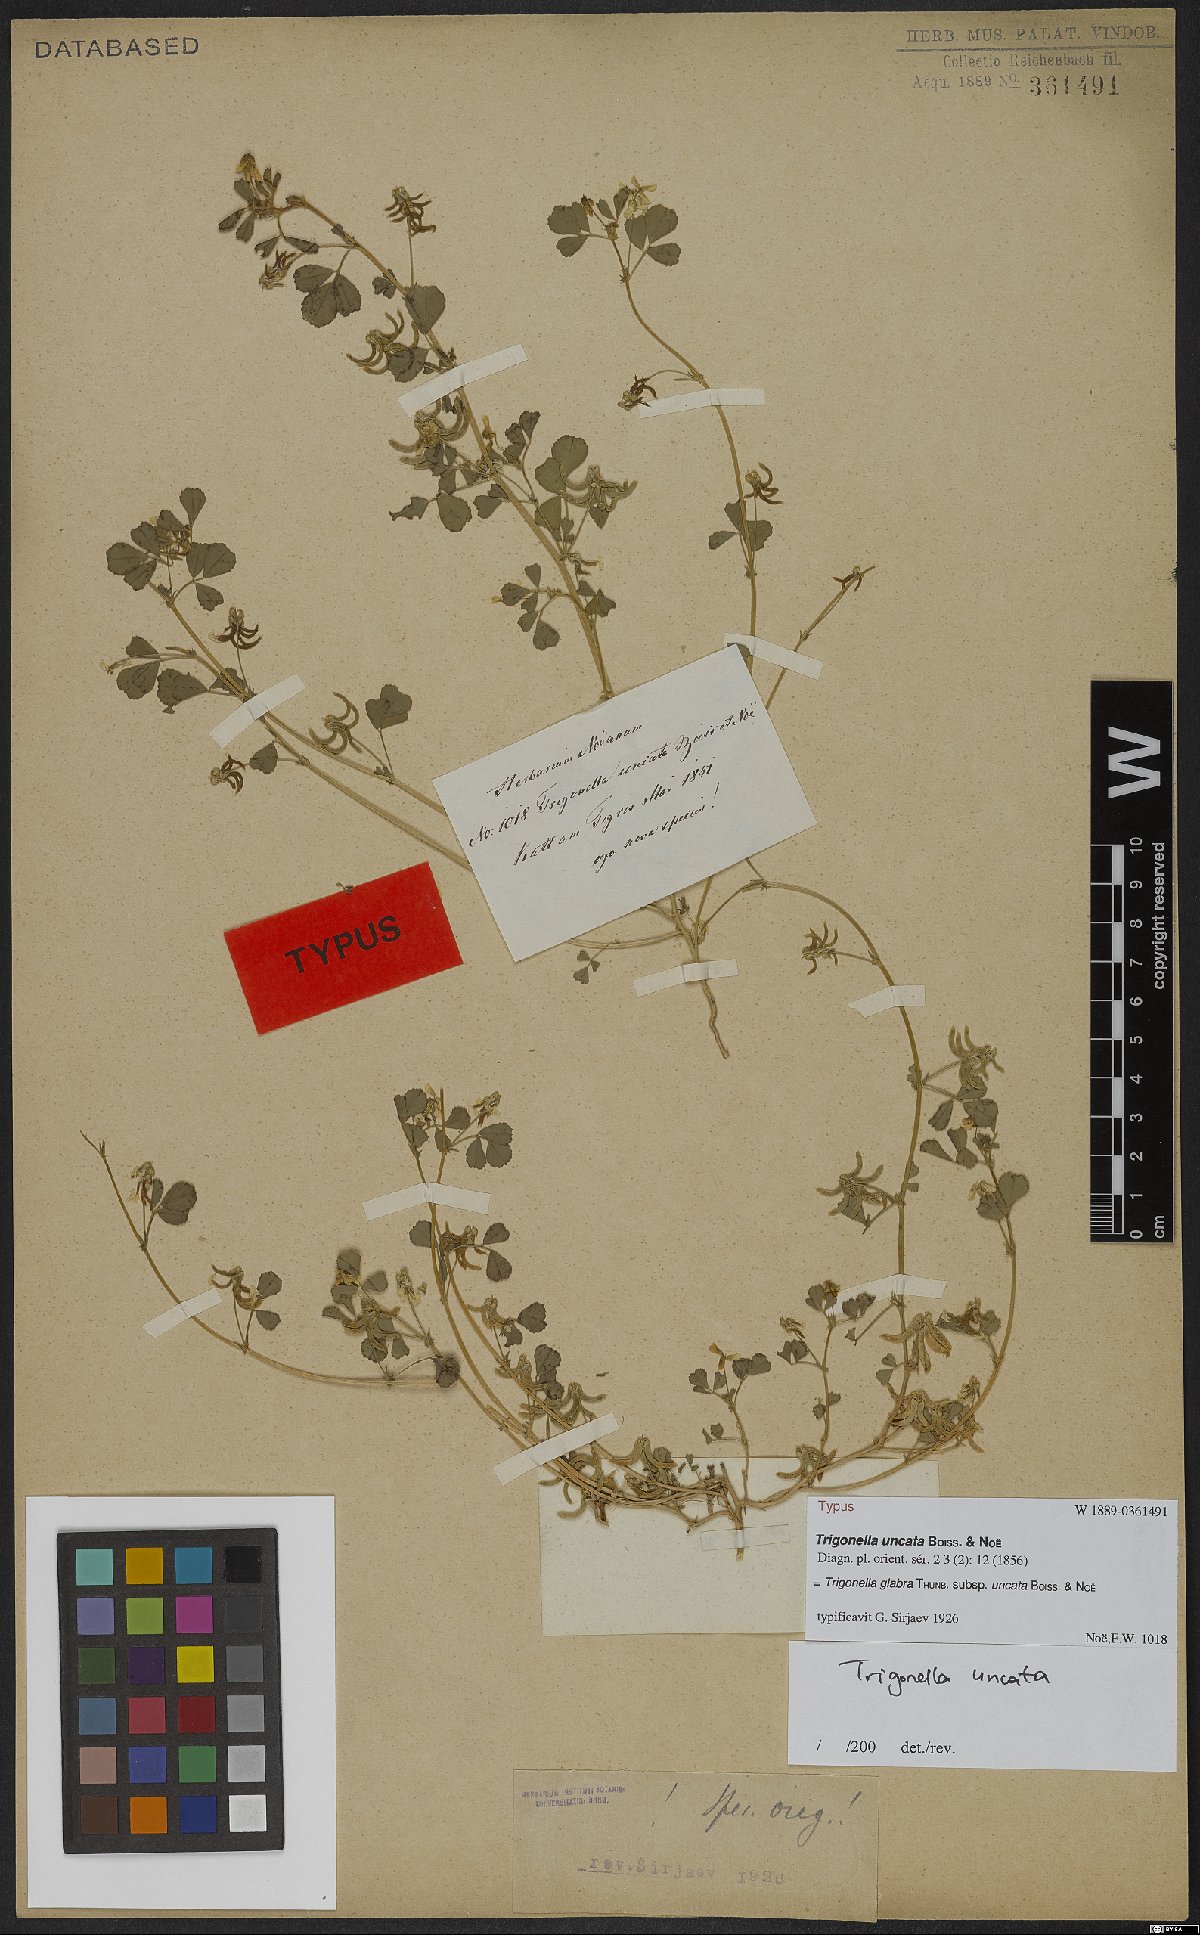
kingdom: Plantae
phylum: Tracheophyta
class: Magnoliopsida
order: Fabales
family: Fabaceae
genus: Trigonella
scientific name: Trigonella glabra
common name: Egyptian fenugreek
